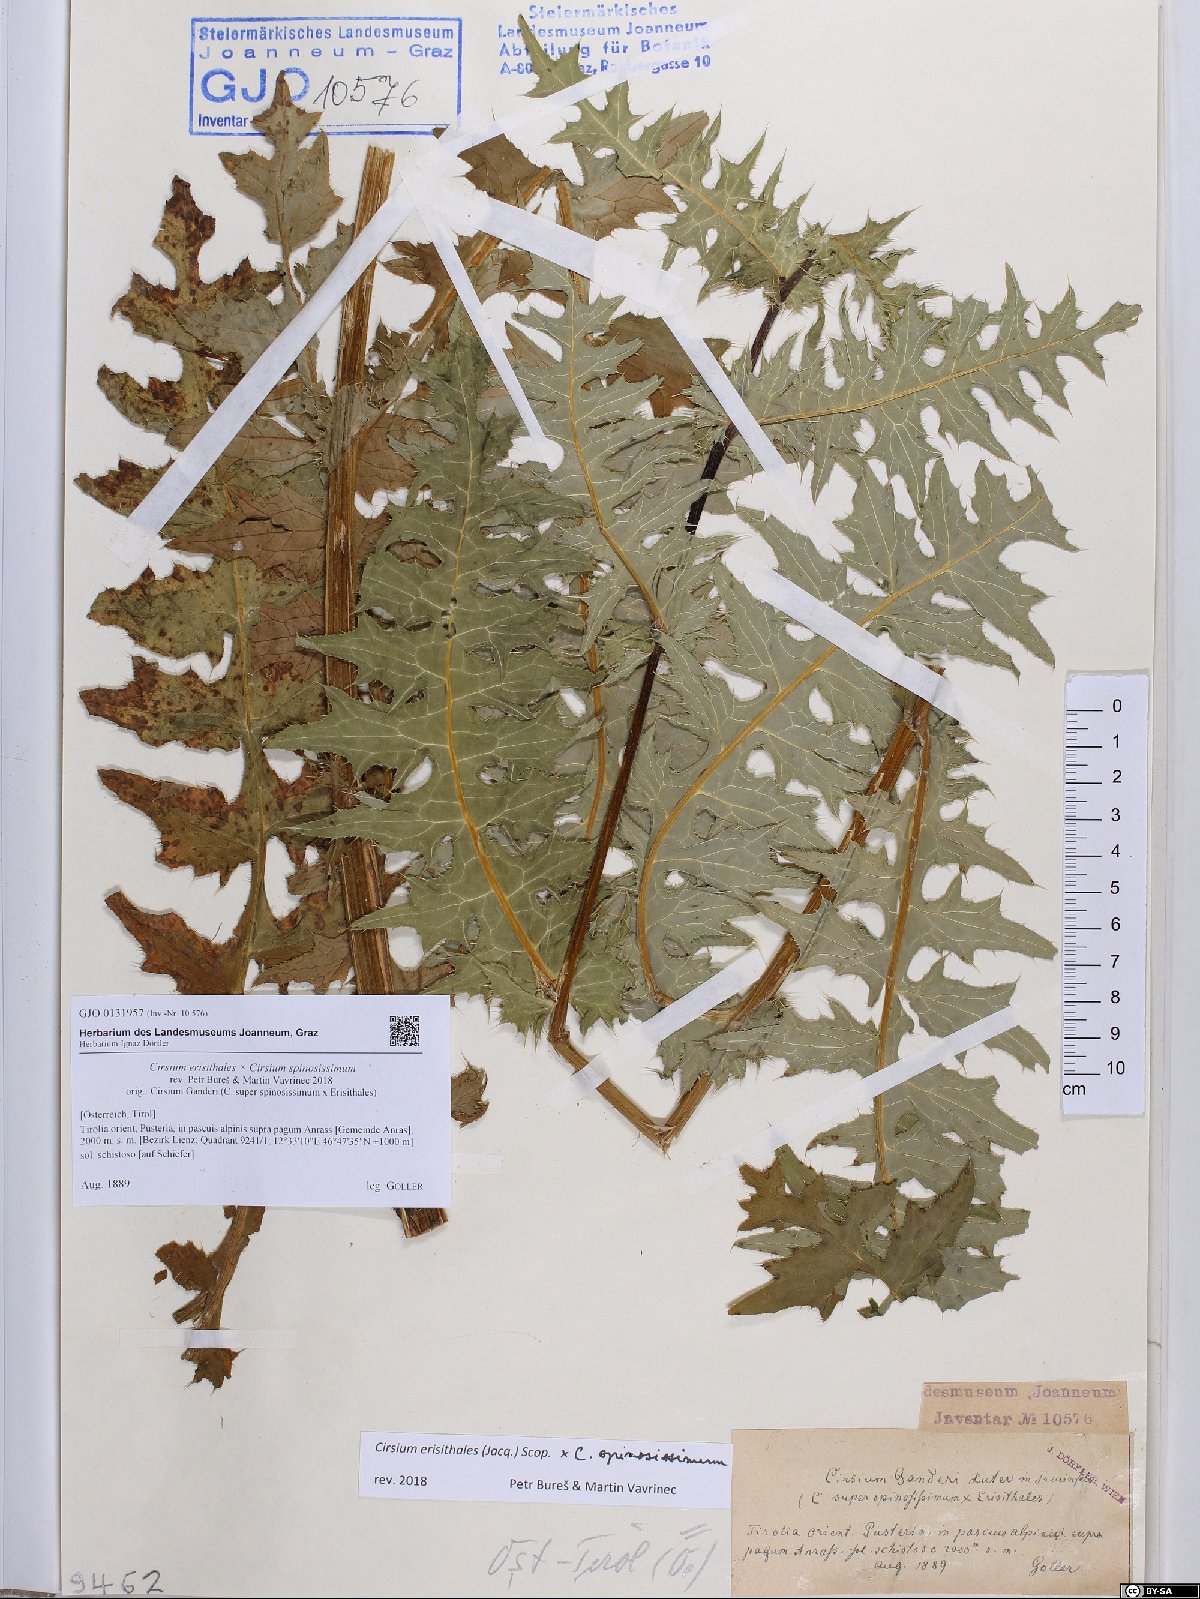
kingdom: Plantae
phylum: Tracheophyta
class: Magnoliopsida
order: Asterales
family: Asteraceae
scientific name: Asteraceae
